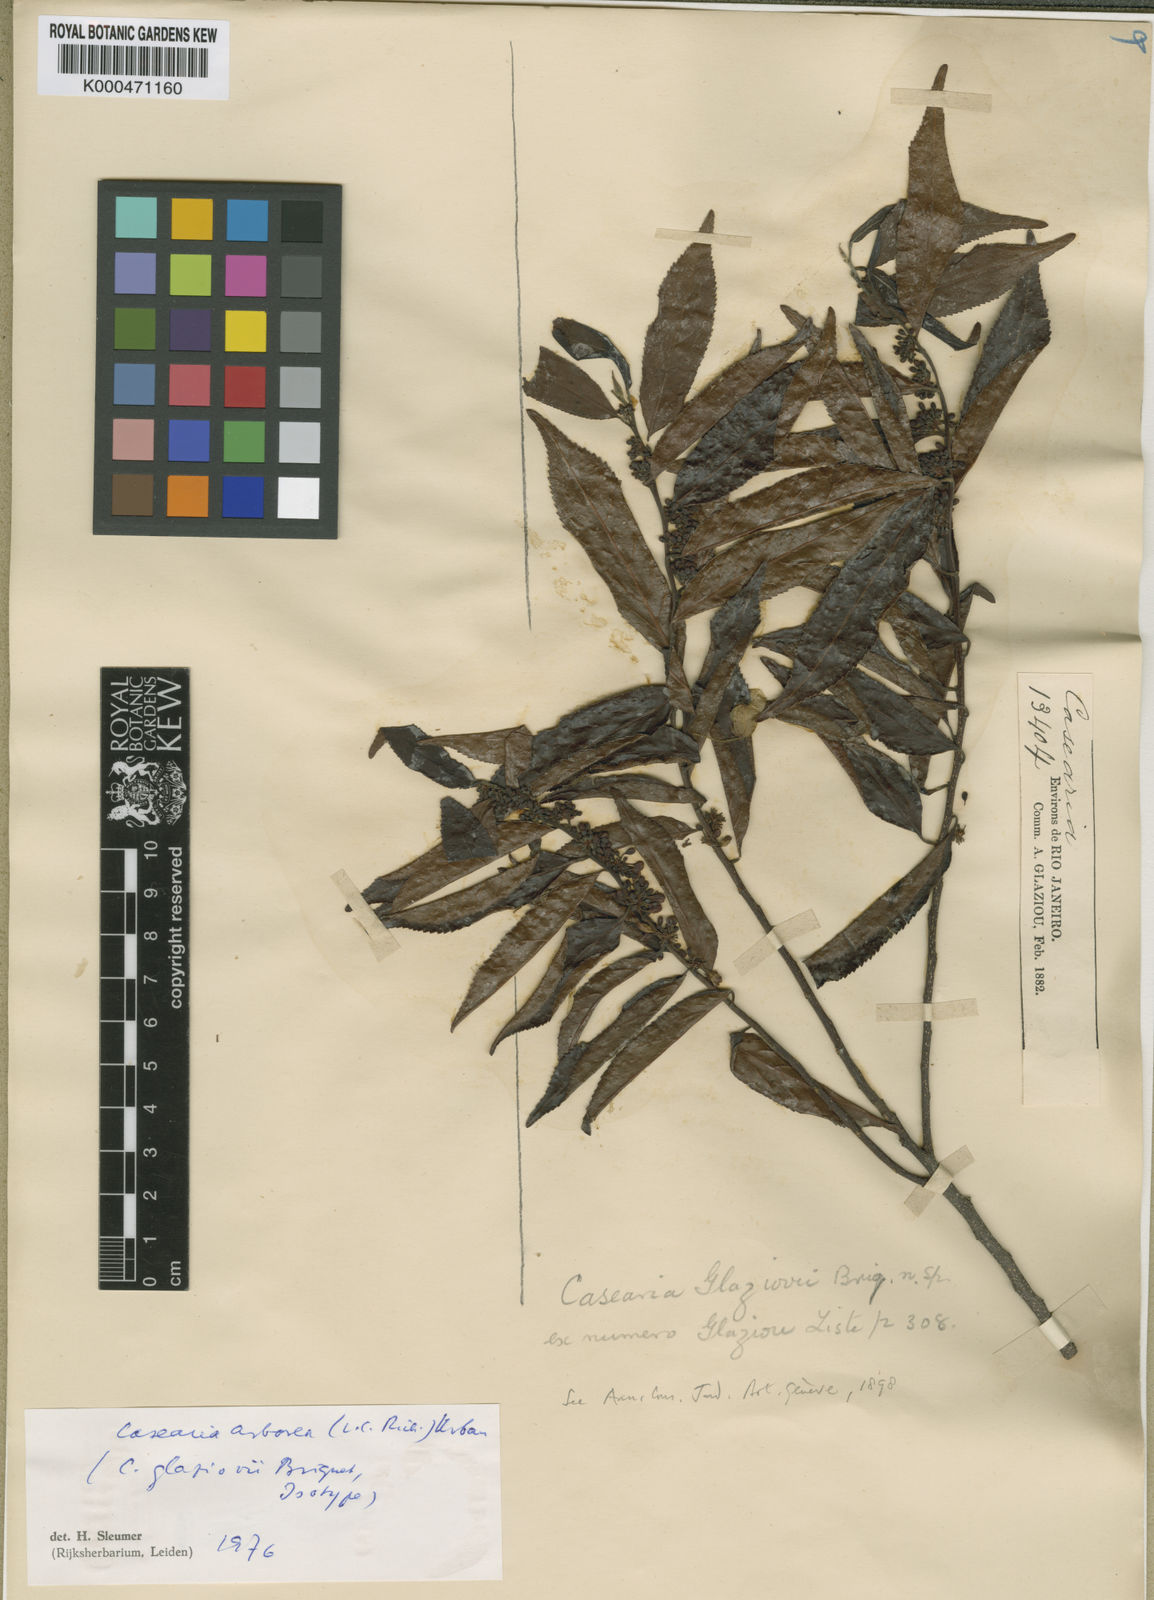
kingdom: Plantae
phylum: Tracheophyta
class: Magnoliopsida
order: Malpighiales
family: Salicaceae
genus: Casearia
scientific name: Casearia arborea
